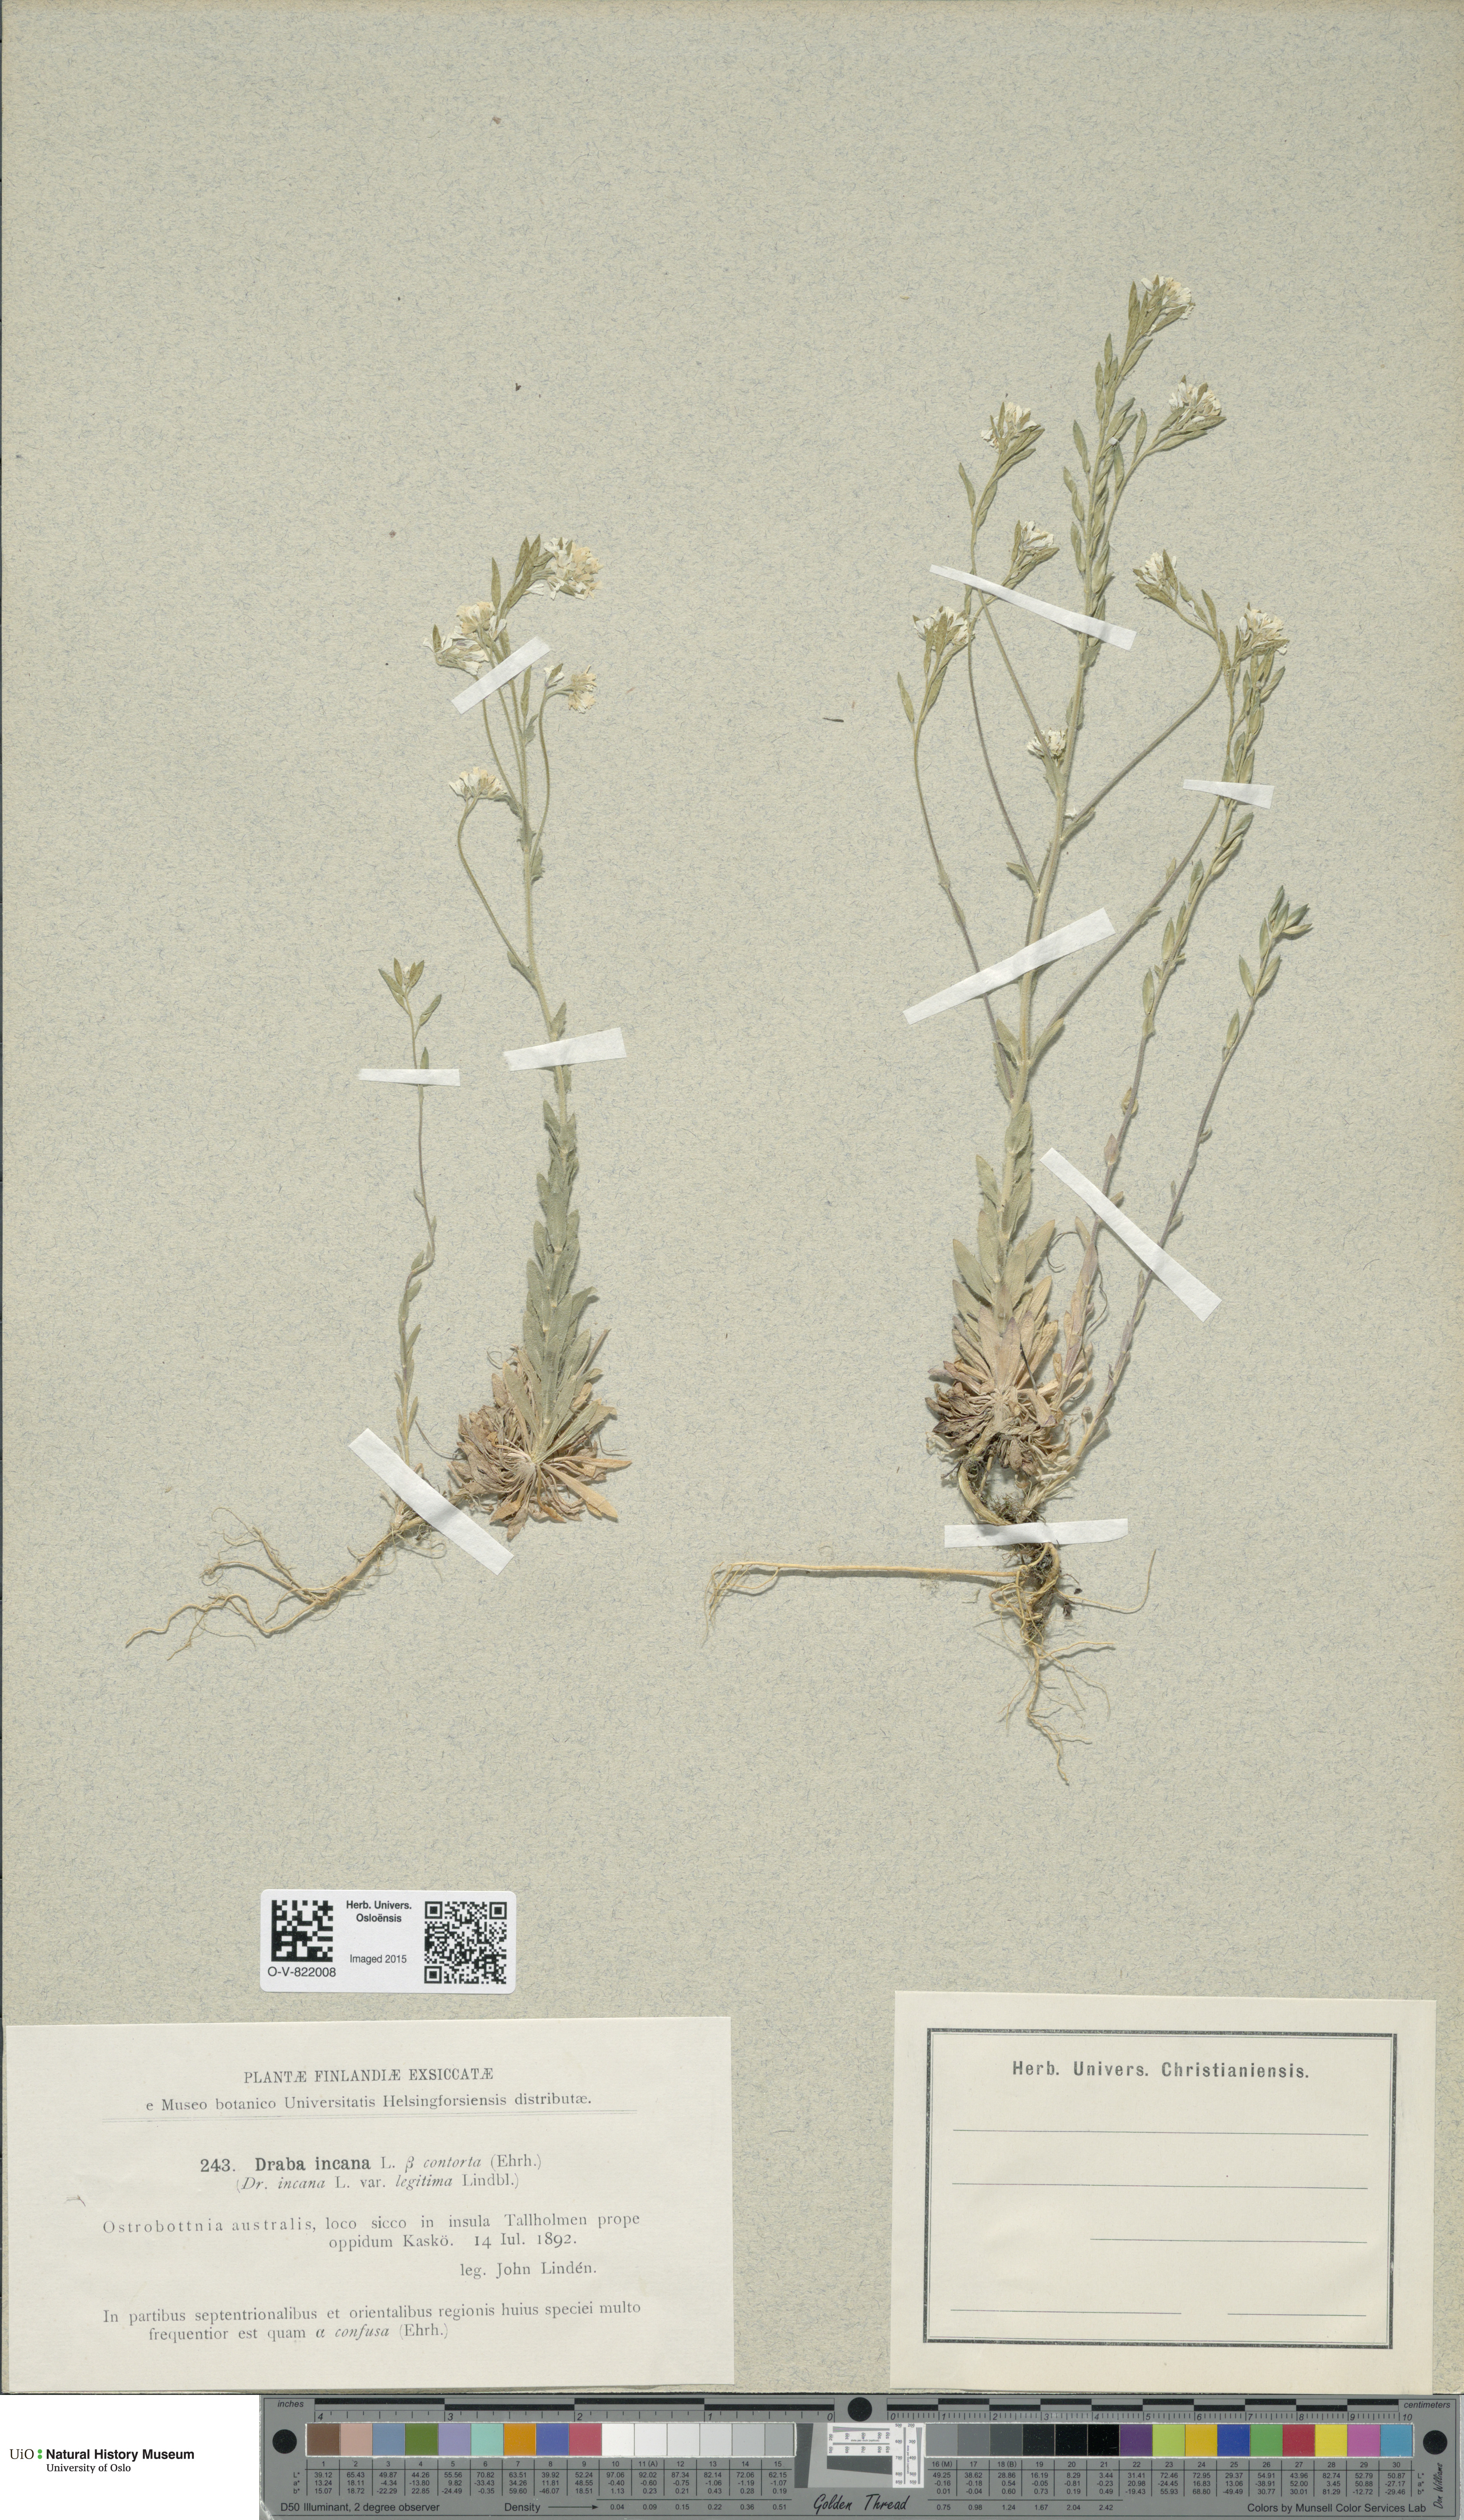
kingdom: Plantae
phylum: Tracheophyta
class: Magnoliopsida
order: Brassicales
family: Brassicaceae
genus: Draba
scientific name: Draba incana
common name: Hoary whitlow-grass
